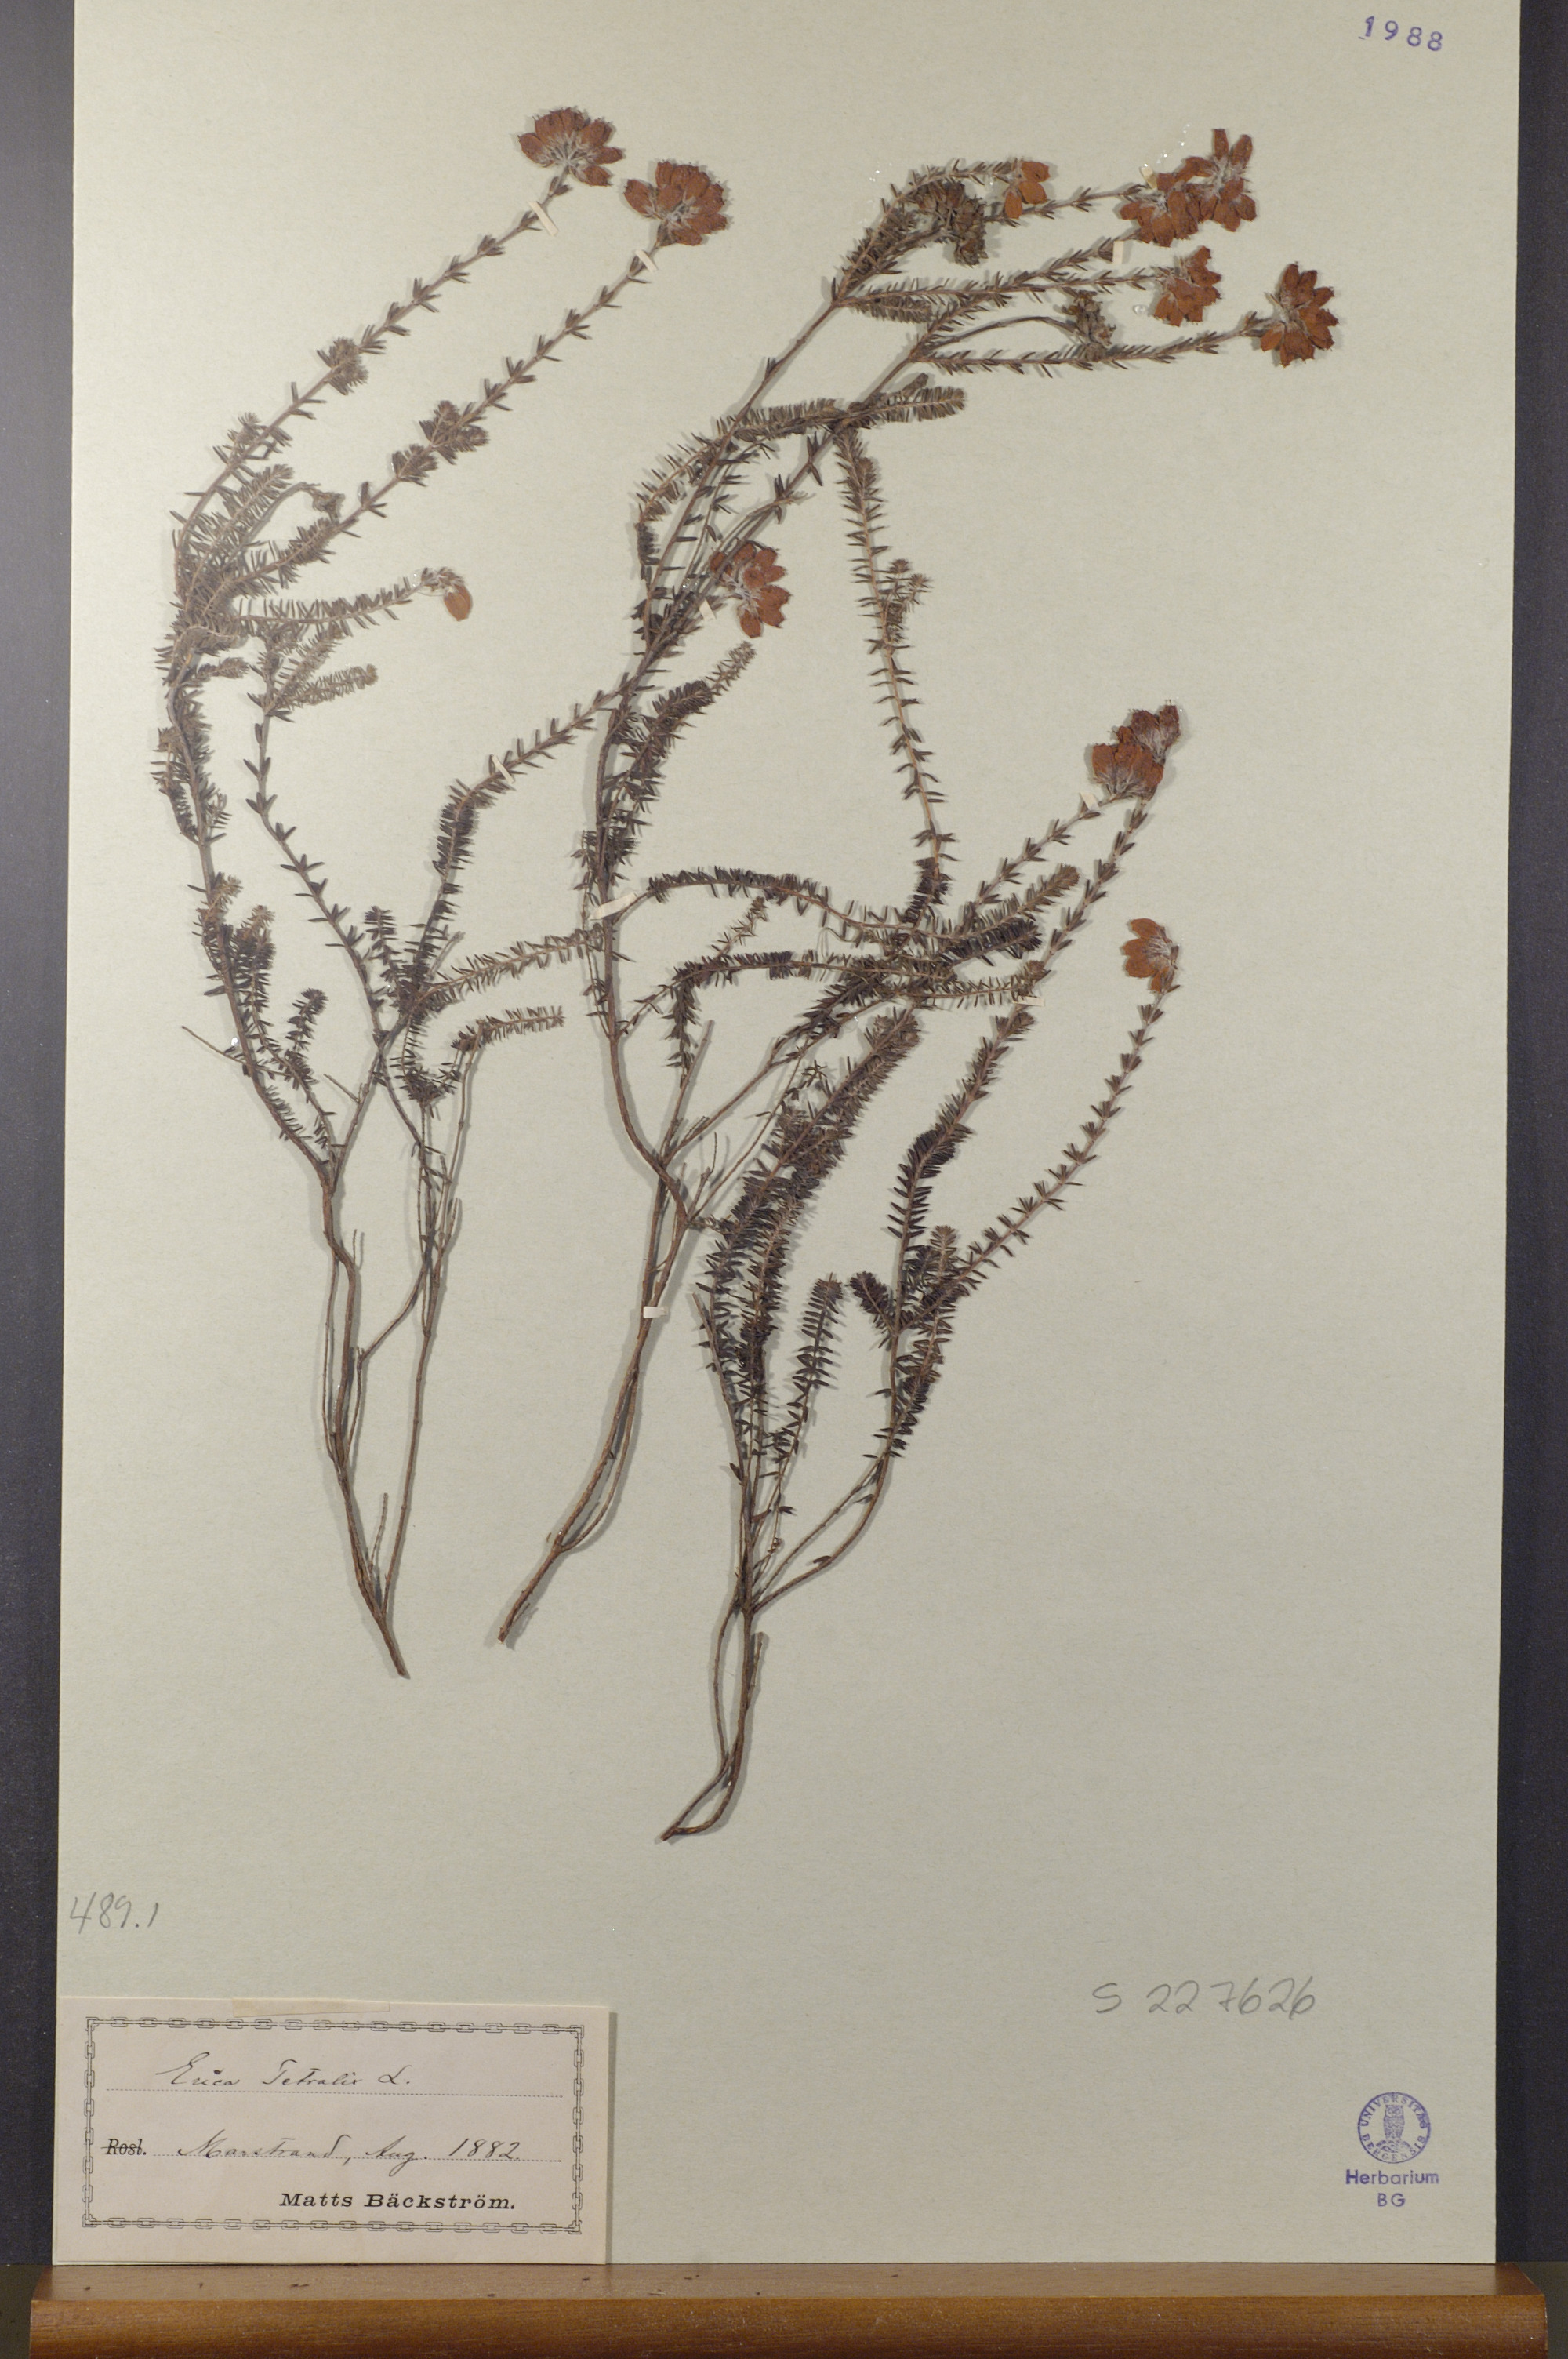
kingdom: Plantae
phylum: Tracheophyta
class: Magnoliopsida
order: Ericales
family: Ericaceae
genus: Erica
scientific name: Erica tetralix
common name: Cross-leaved heath
